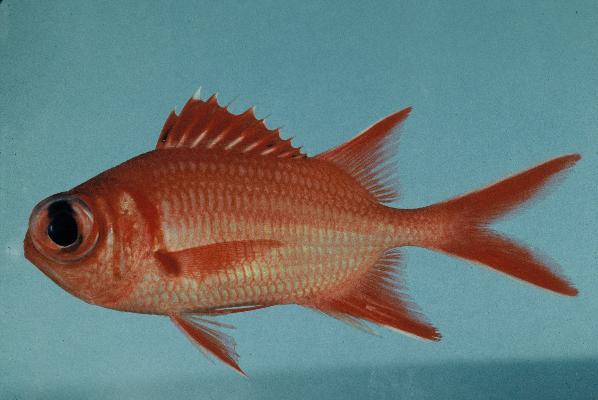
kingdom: Animalia
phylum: Chordata
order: Beryciformes
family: Holocentridae
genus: Myripristis
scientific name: Myripristis vittata
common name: Immaculate squirrelfish
